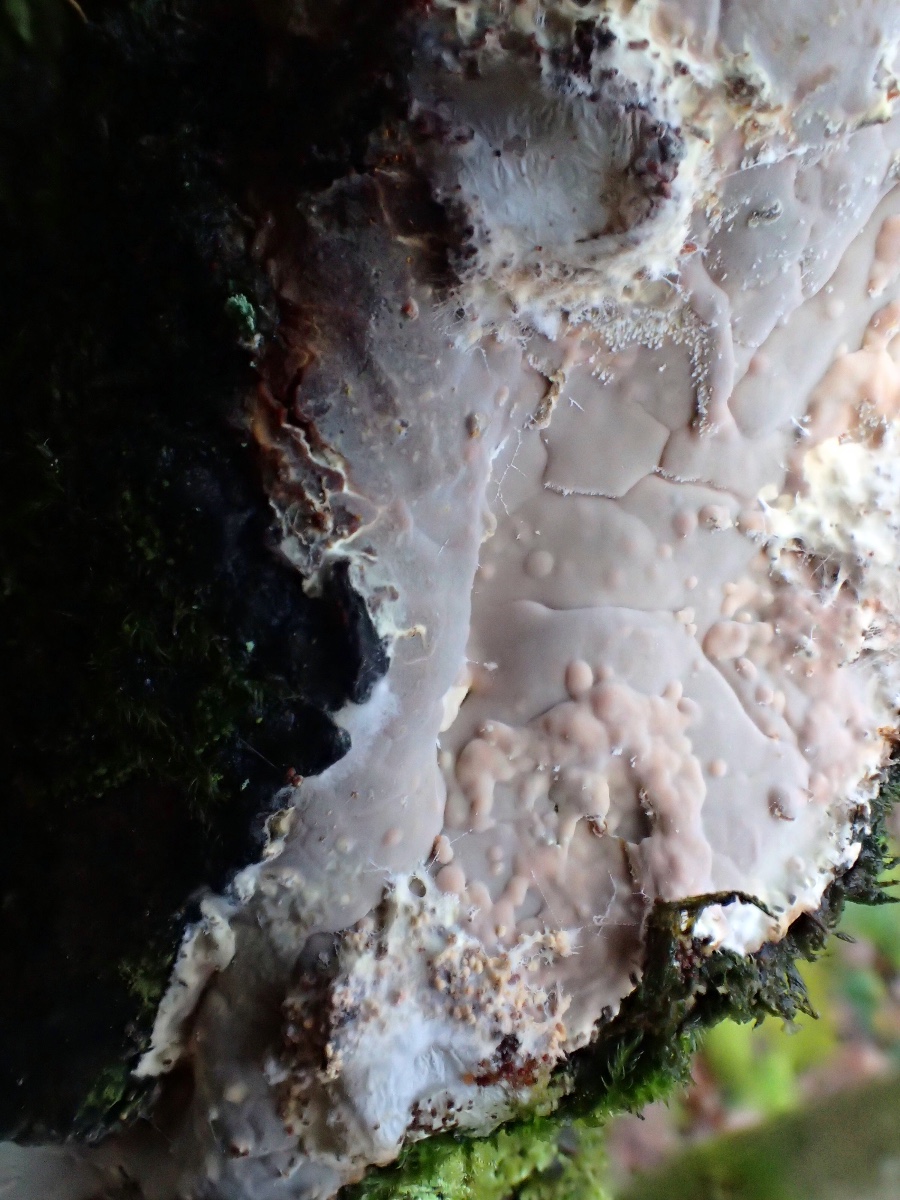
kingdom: Fungi
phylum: Basidiomycota
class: Agaricomycetes
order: Russulales
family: Peniophoraceae
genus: Scytinostroma
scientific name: Scytinostroma hemidichophyticum
